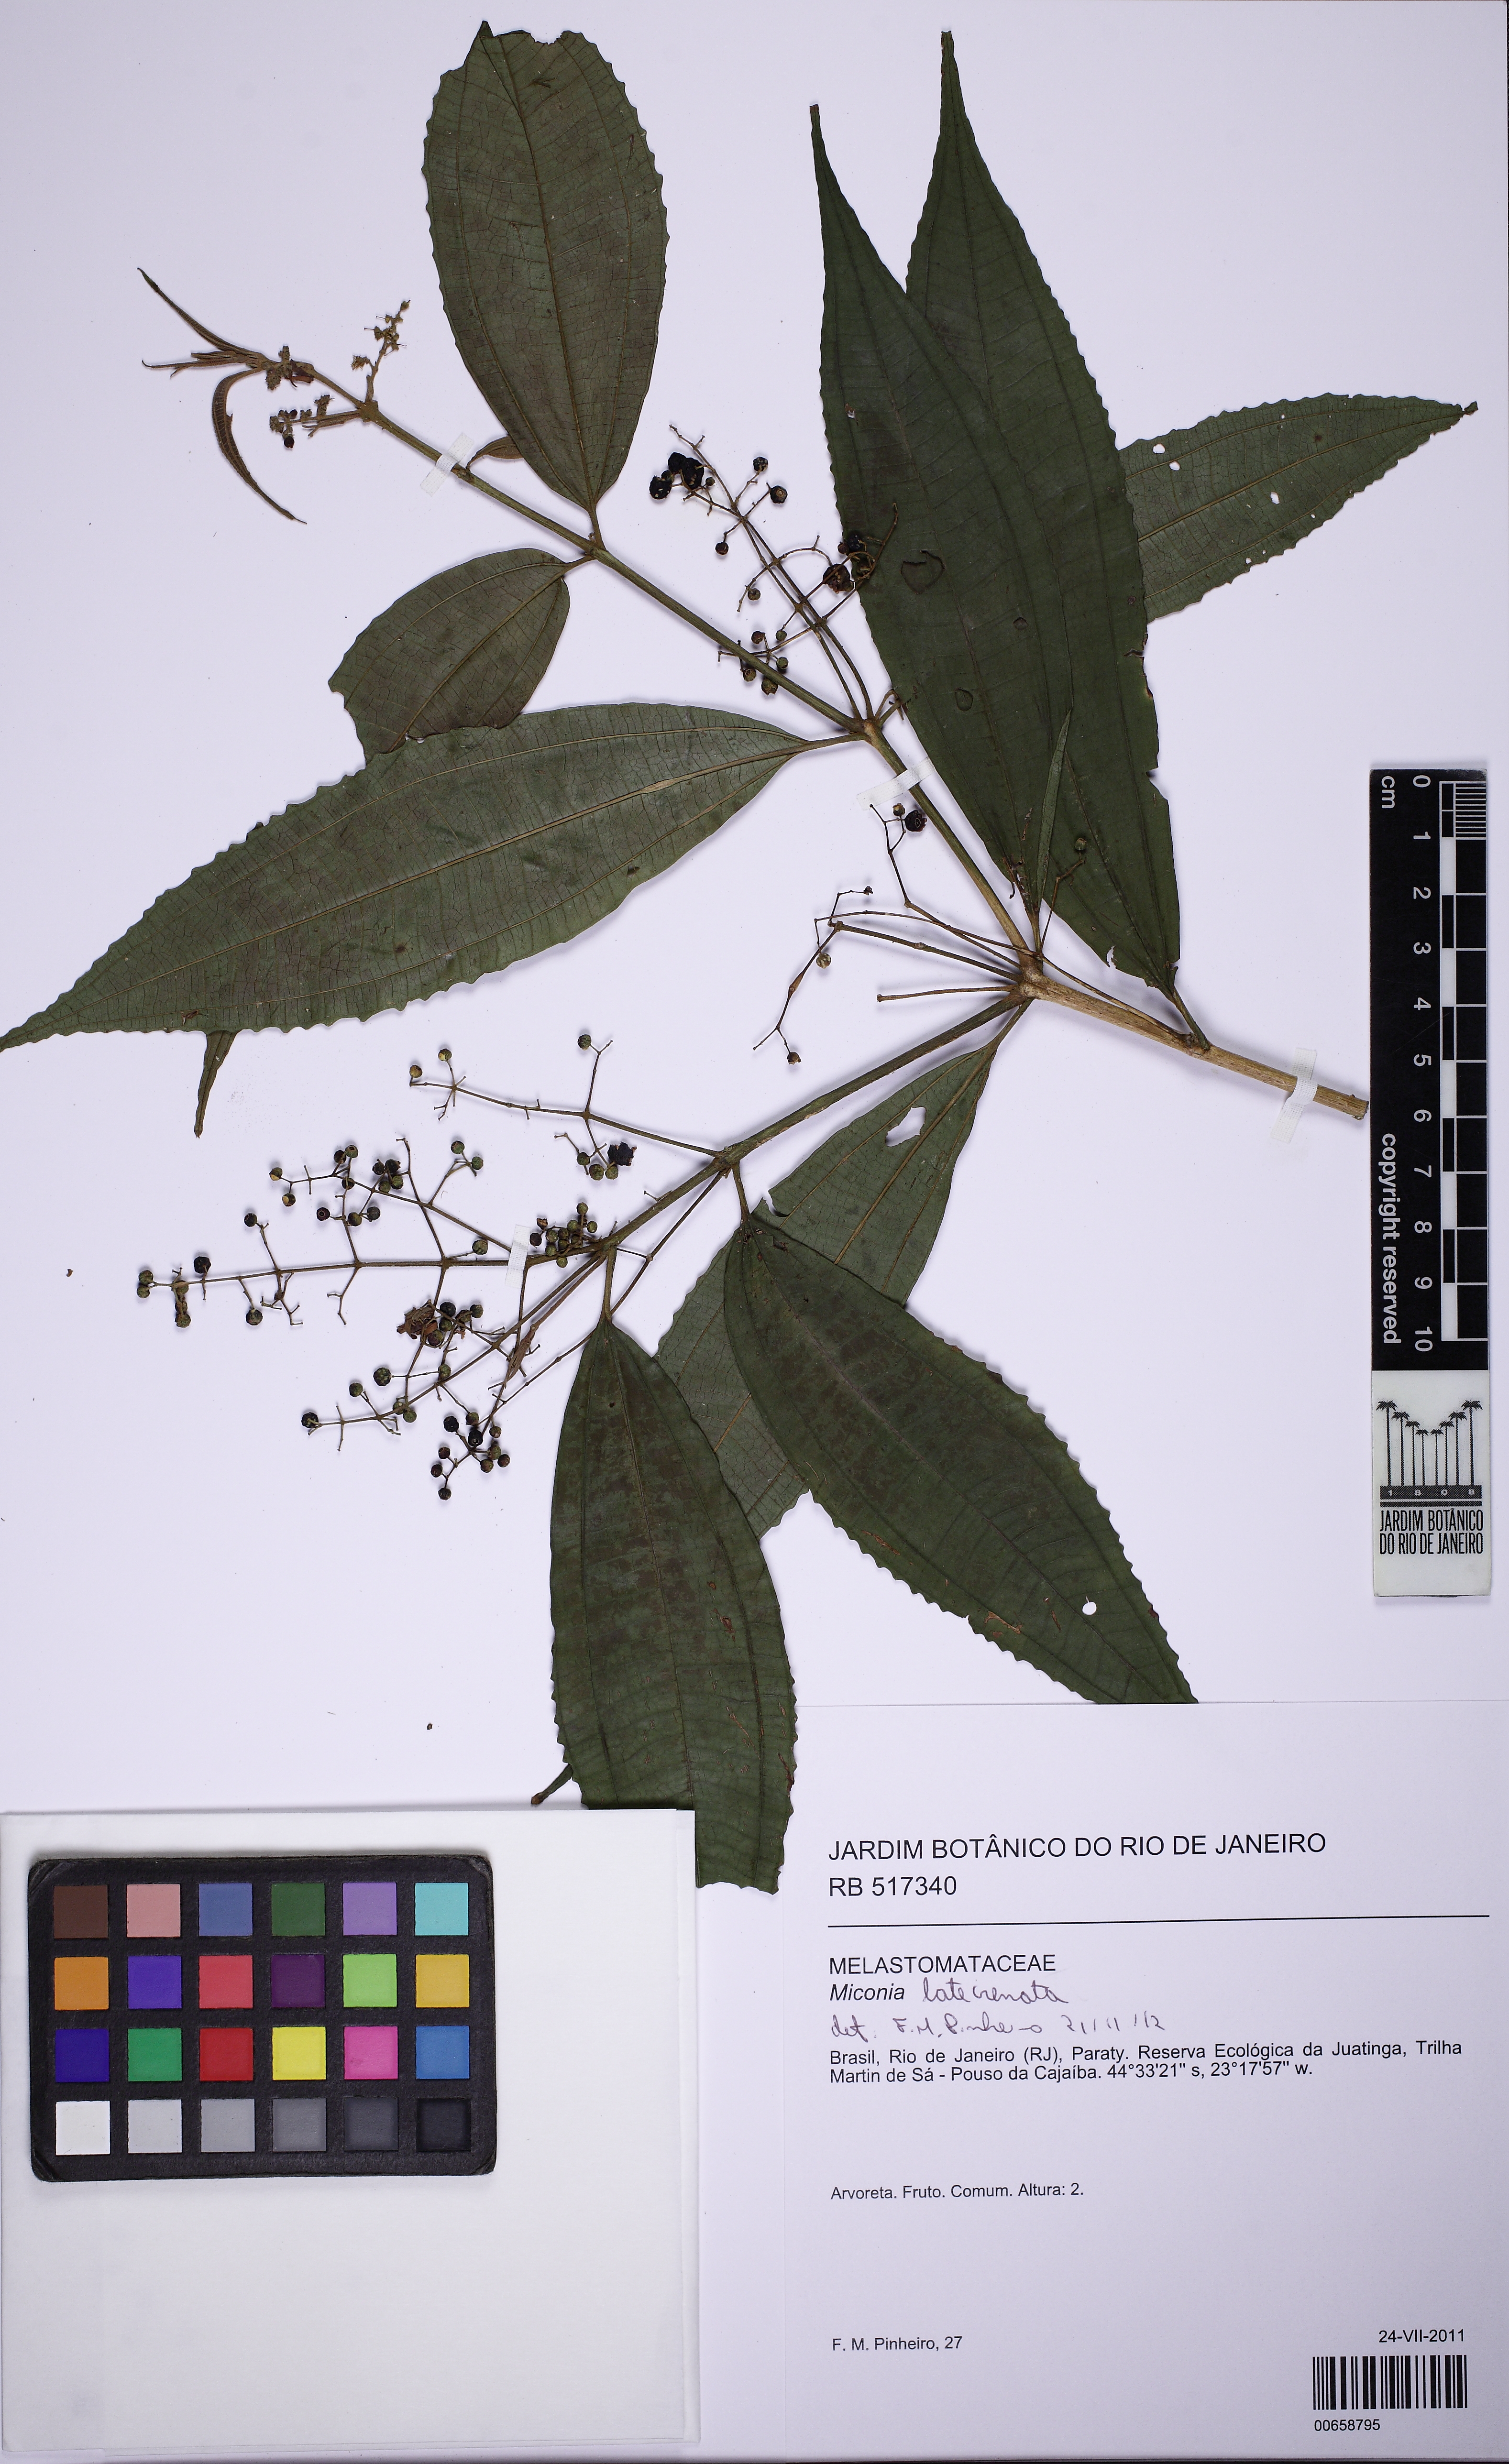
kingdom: Plantae
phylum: Tracheophyta
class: Magnoliopsida
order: Myrtales
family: Melastomataceae
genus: Miconia
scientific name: Miconia latecrenata
